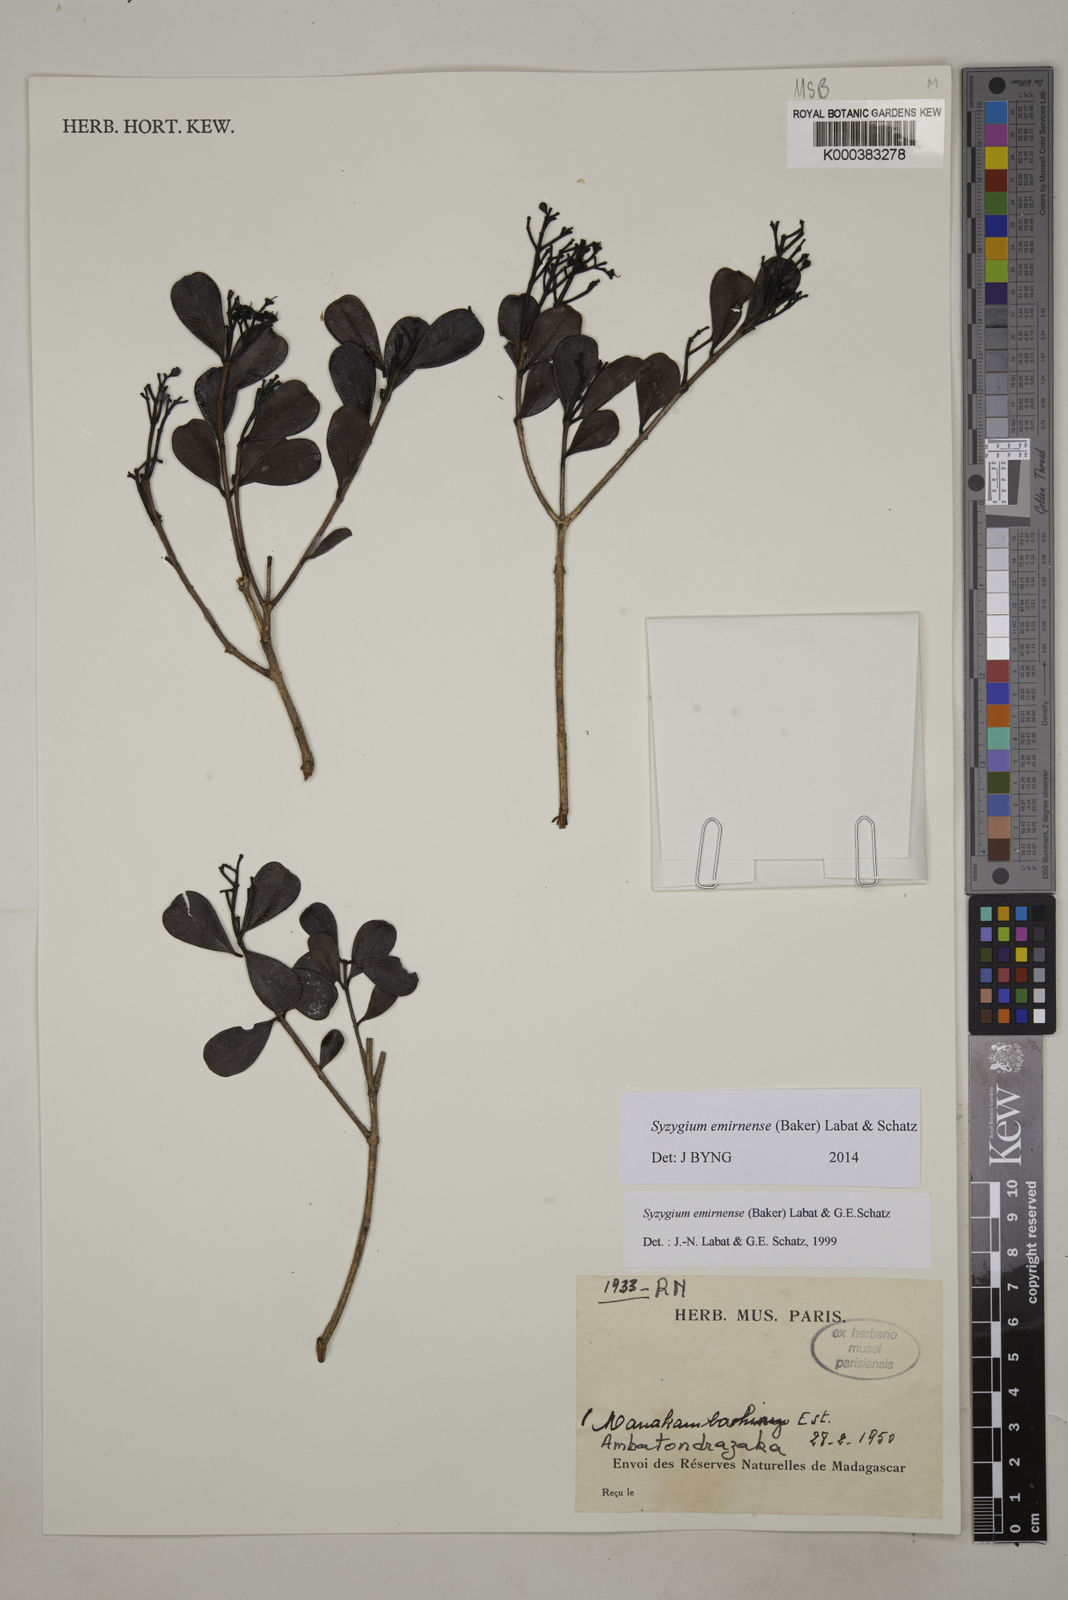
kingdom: Plantae
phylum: Tracheophyta
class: Magnoliopsida
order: Myrtales
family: Myrtaceae
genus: Syzygium
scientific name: Syzygium emirnense
